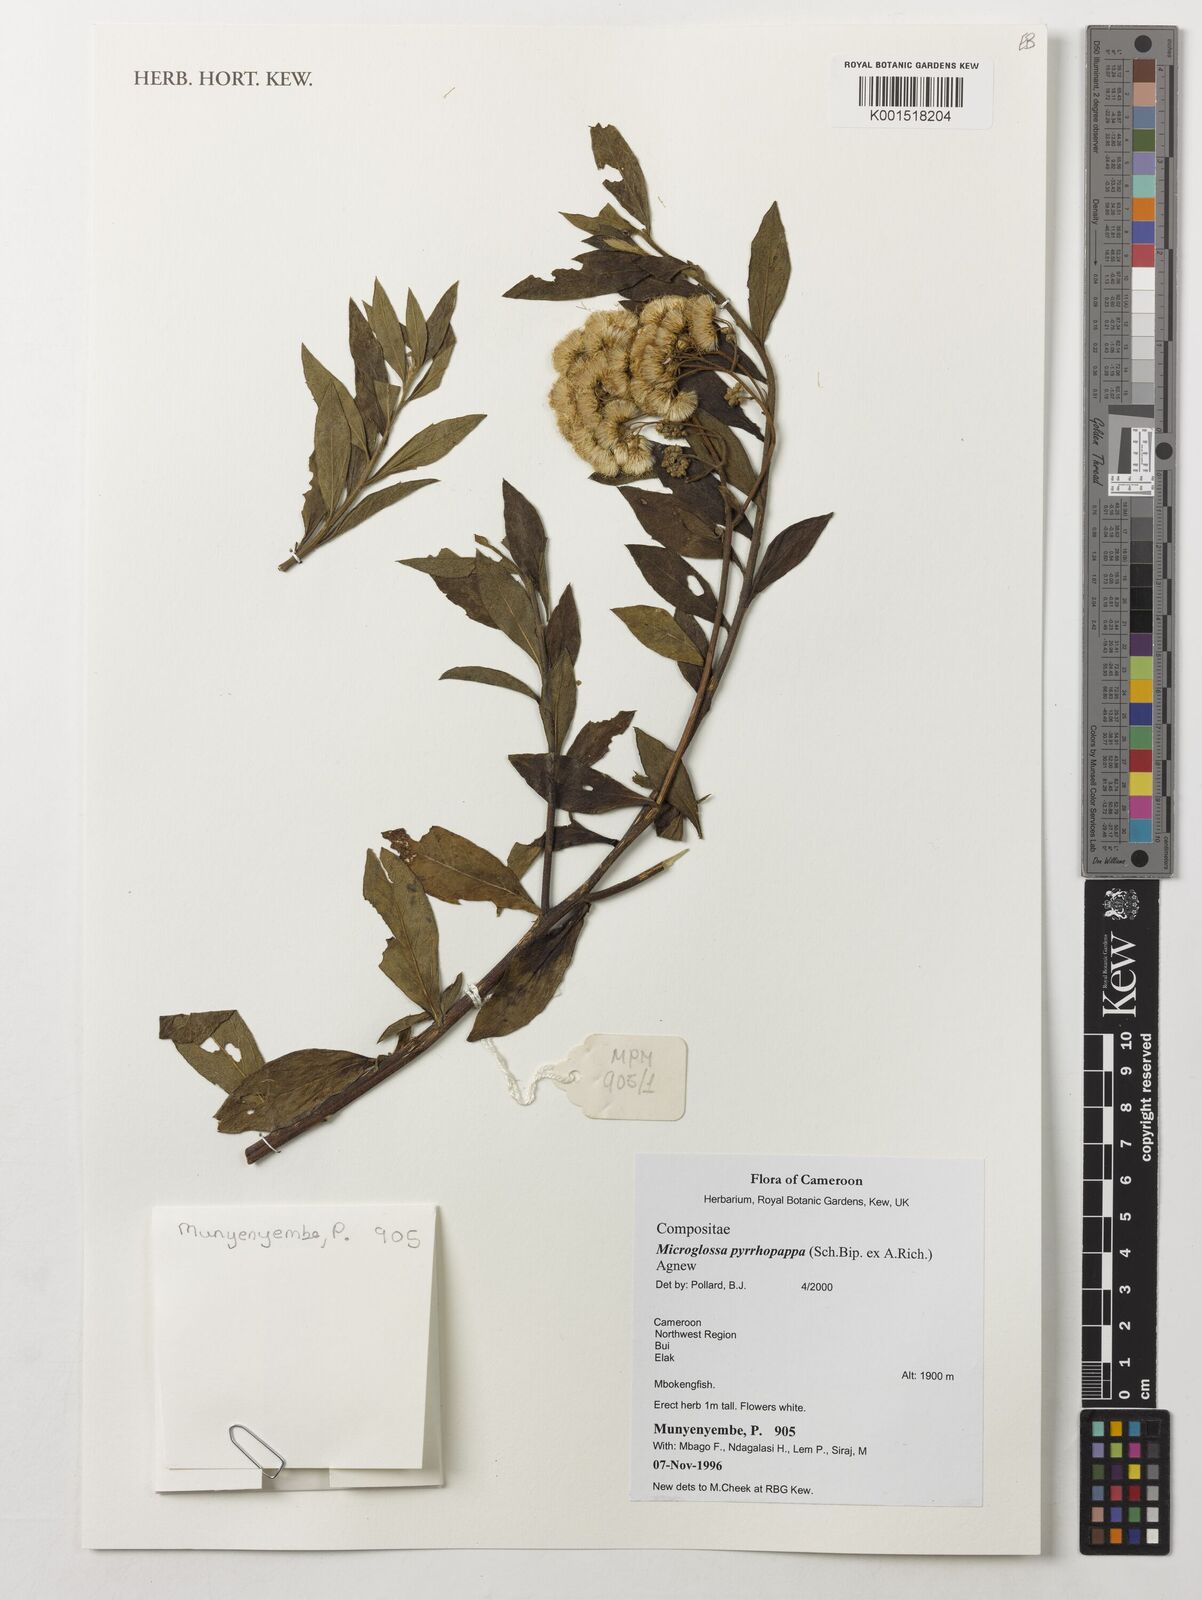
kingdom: Plantae
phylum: Tracheophyta
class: Magnoliopsida
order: Asterales
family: Asteraceae
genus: Microglossa
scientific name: Microglossa pyrrhopappa
